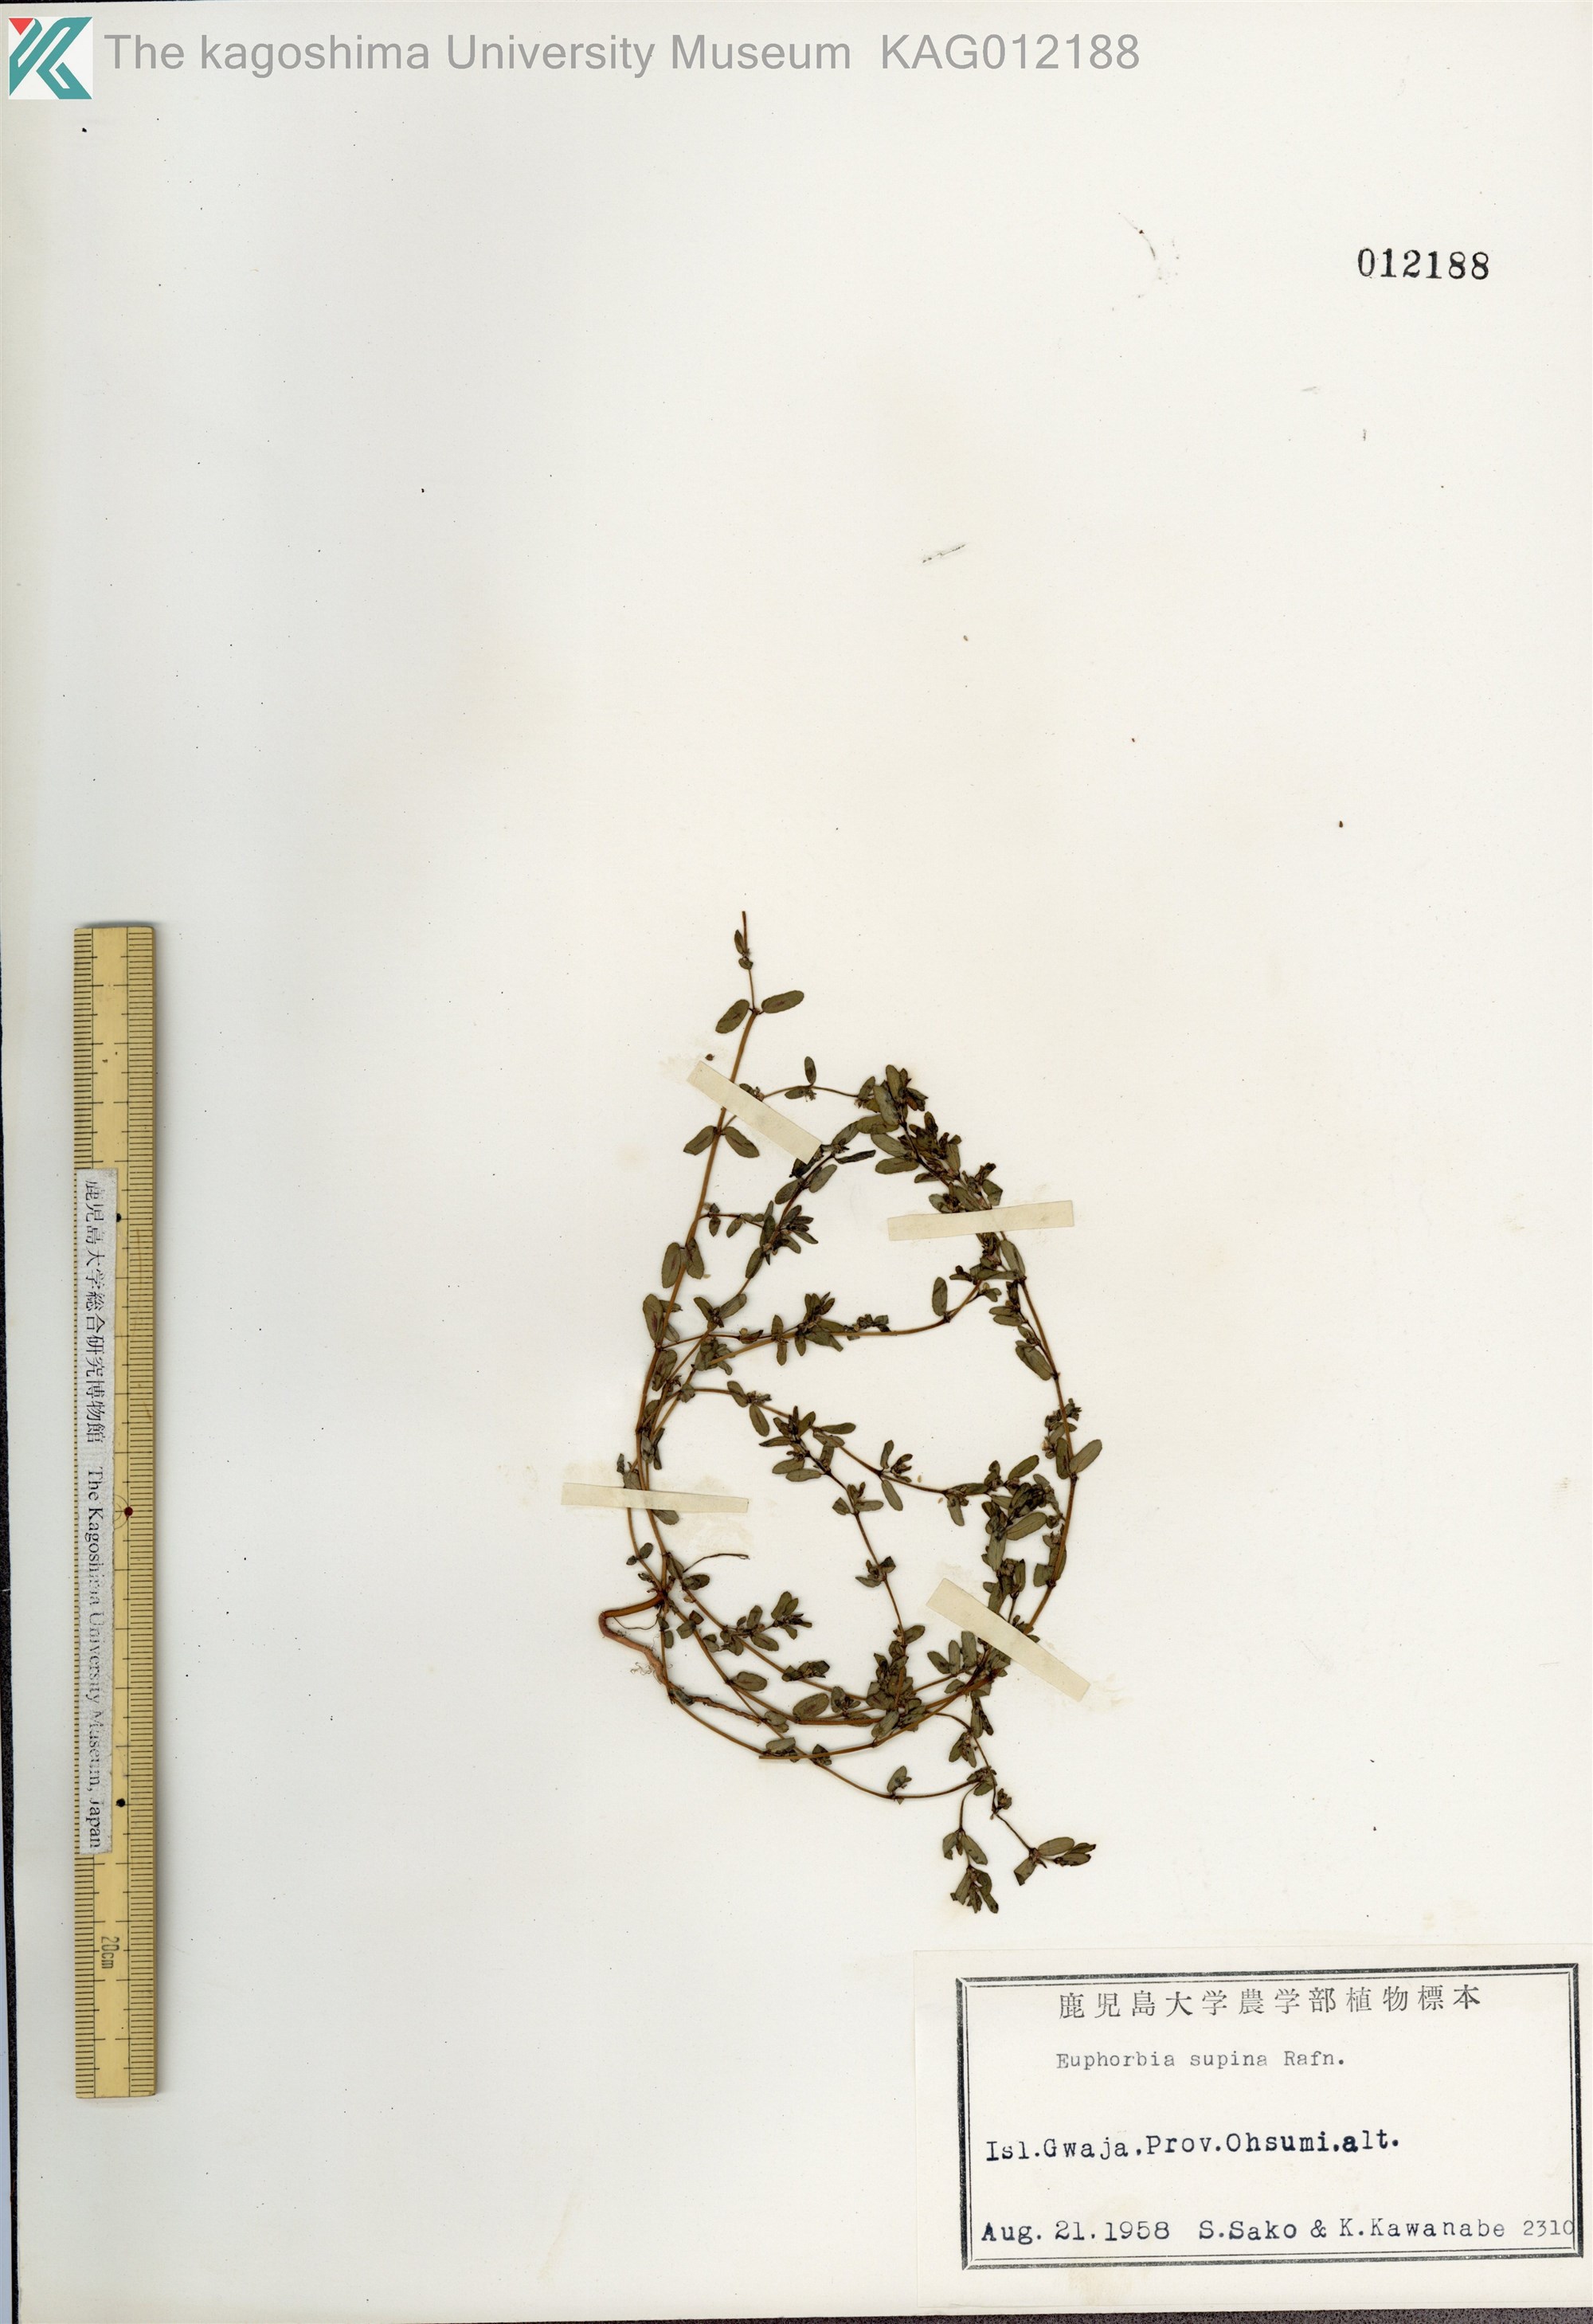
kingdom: Plantae
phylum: Tracheophyta
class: Magnoliopsida
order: Malpighiales
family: Euphorbiaceae
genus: Euphorbia
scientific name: Euphorbia maculata
